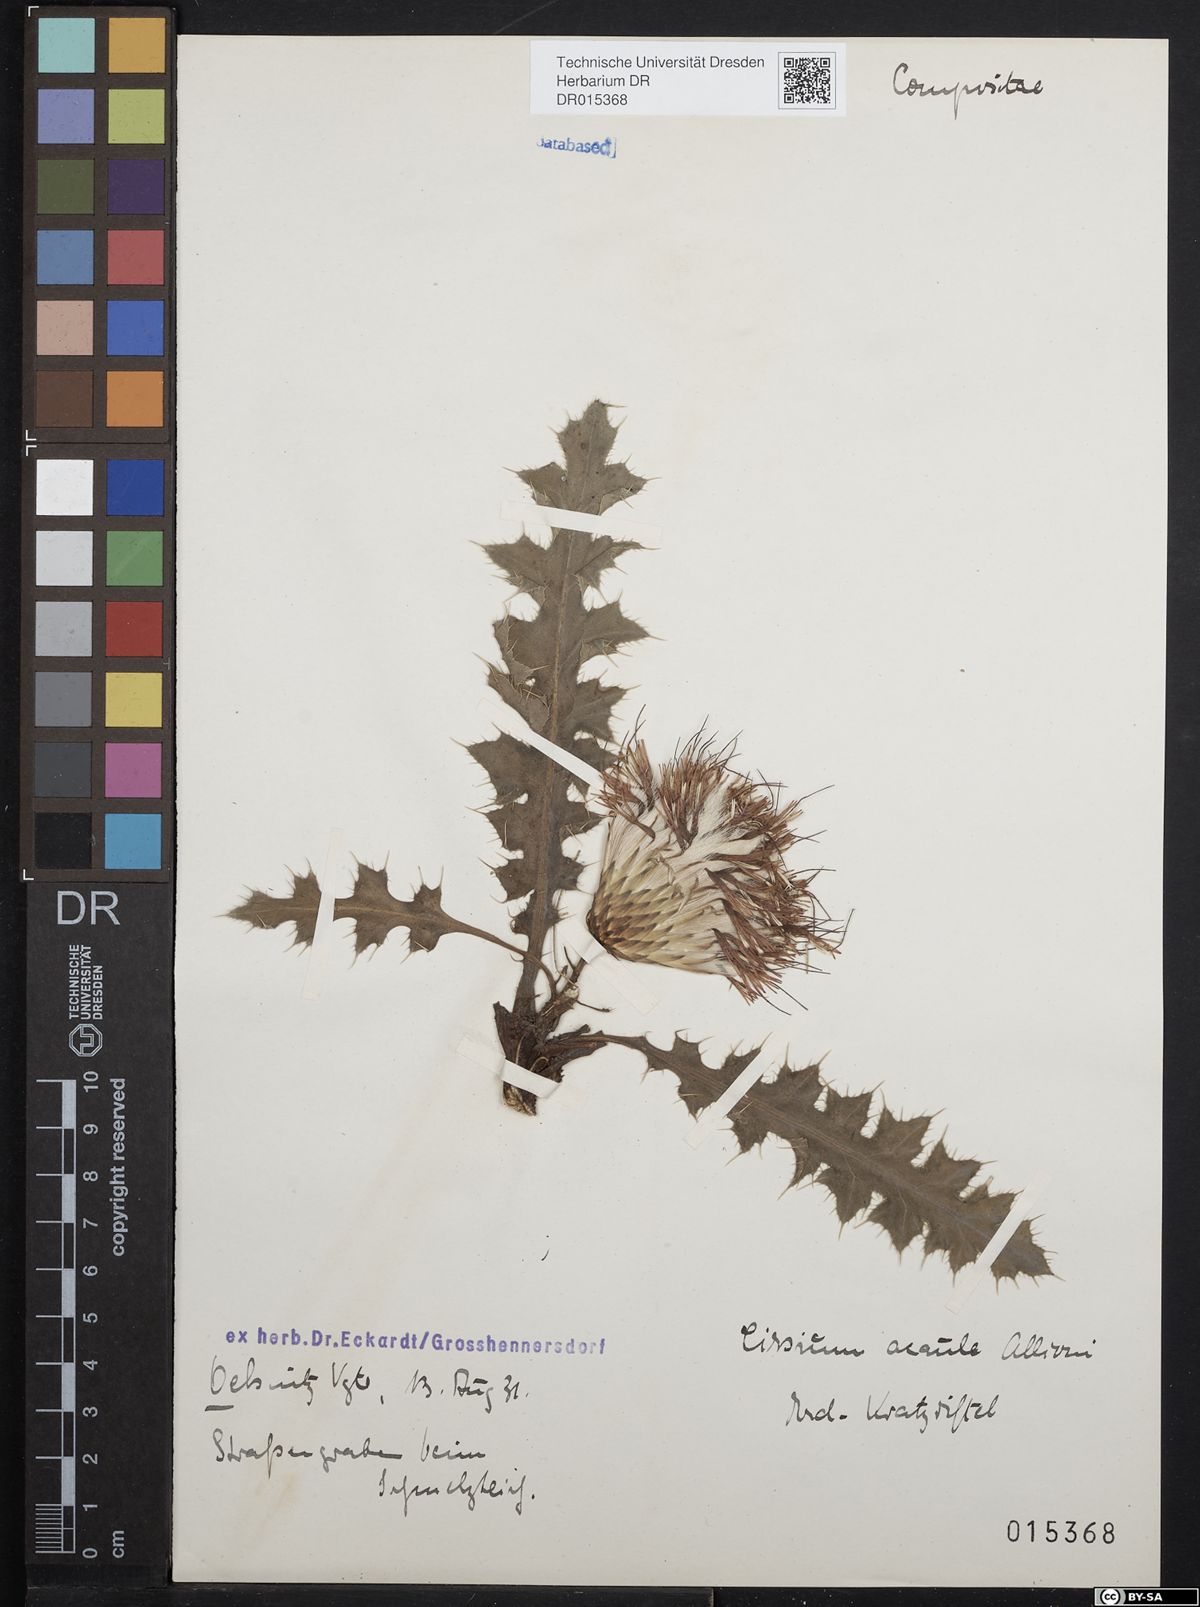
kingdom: Plantae
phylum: Tracheophyta
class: Magnoliopsida
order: Asterales
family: Asteraceae
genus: Cirsium
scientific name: Cirsium acaule
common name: Dwarf thistle
